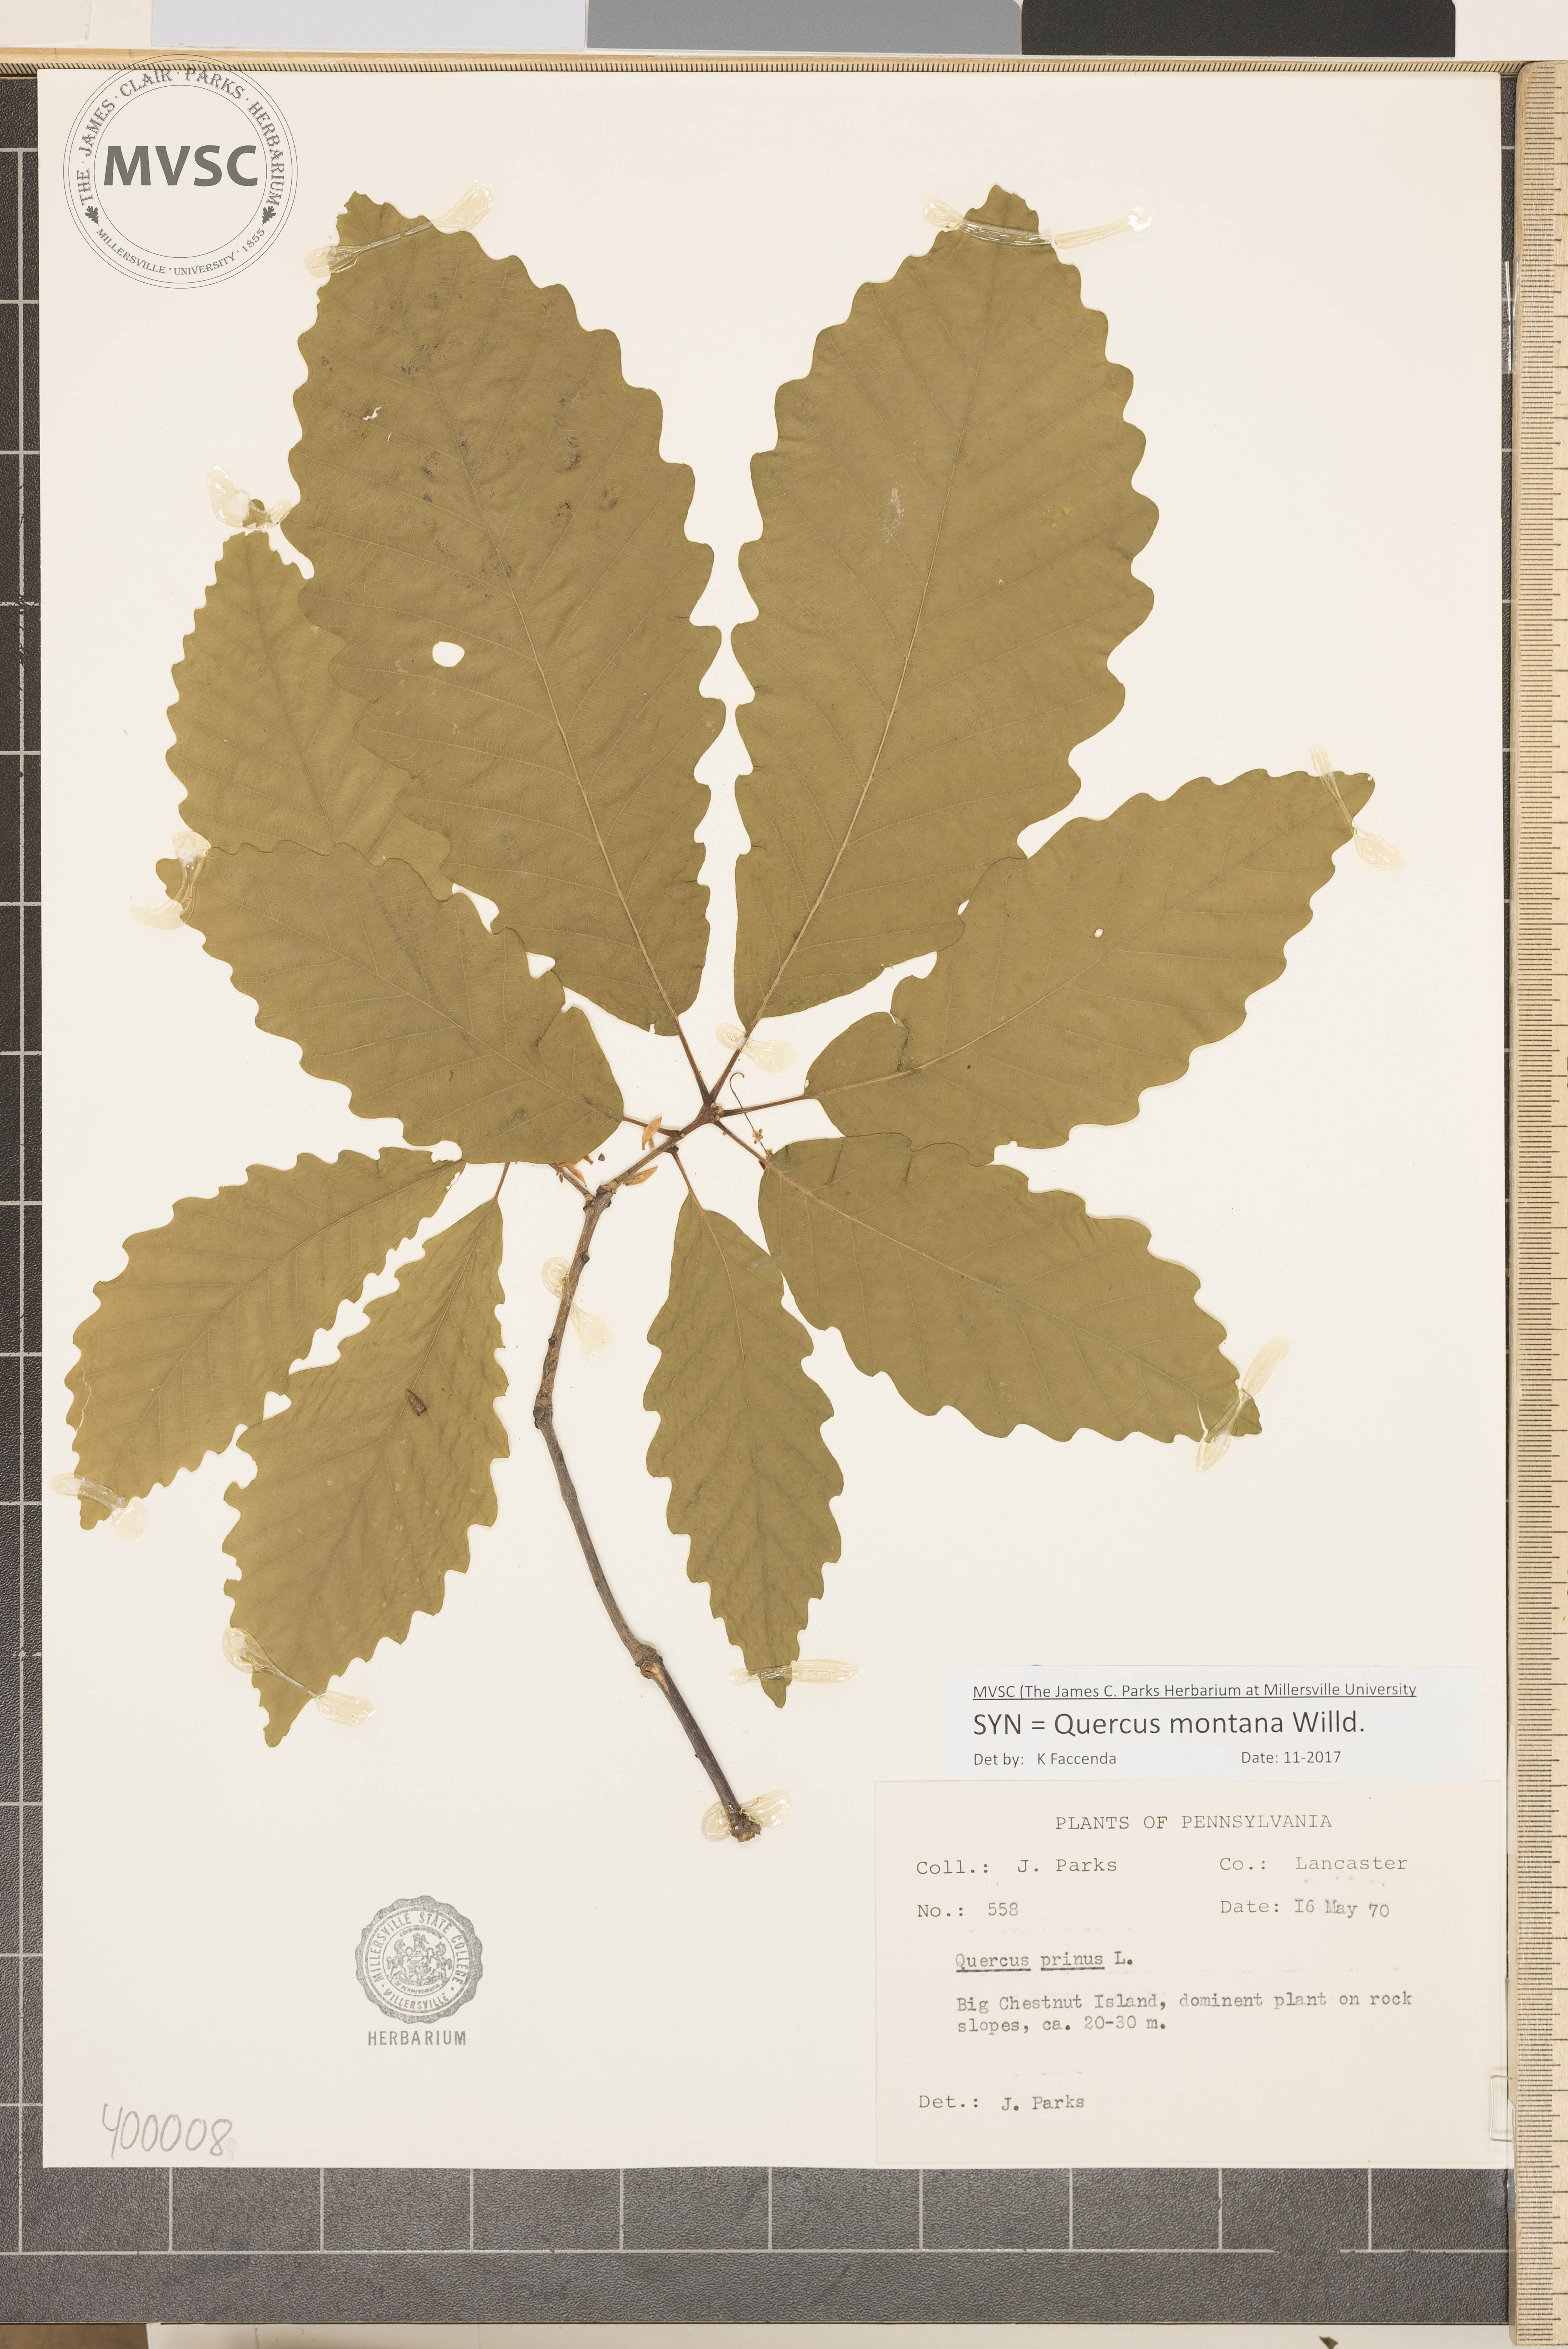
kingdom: Plantae
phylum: Tracheophyta
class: Magnoliopsida
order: Fagales
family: Fagaceae
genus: Quercus
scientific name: Quercus montana
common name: chestnut oak
